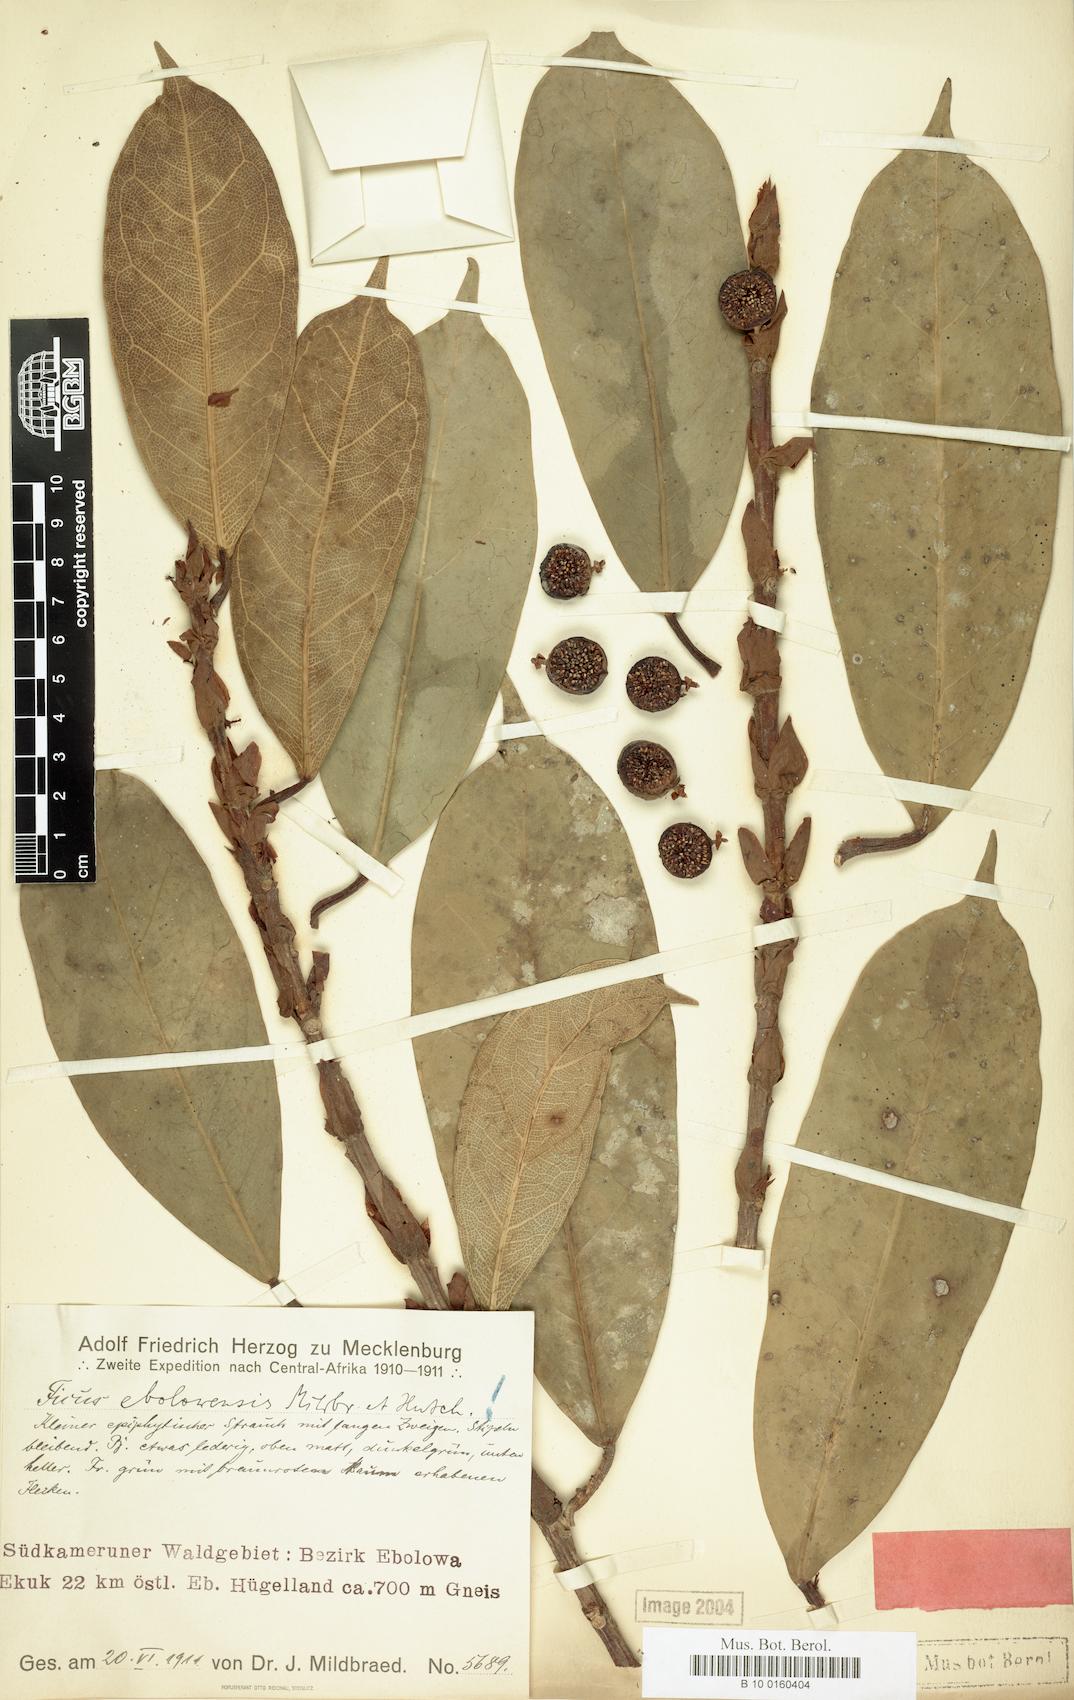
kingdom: Plantae
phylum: Tracheophyta
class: Magnoliopsida
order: Rosales
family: Moraceae
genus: Ficus
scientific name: Ficus densistipulata
